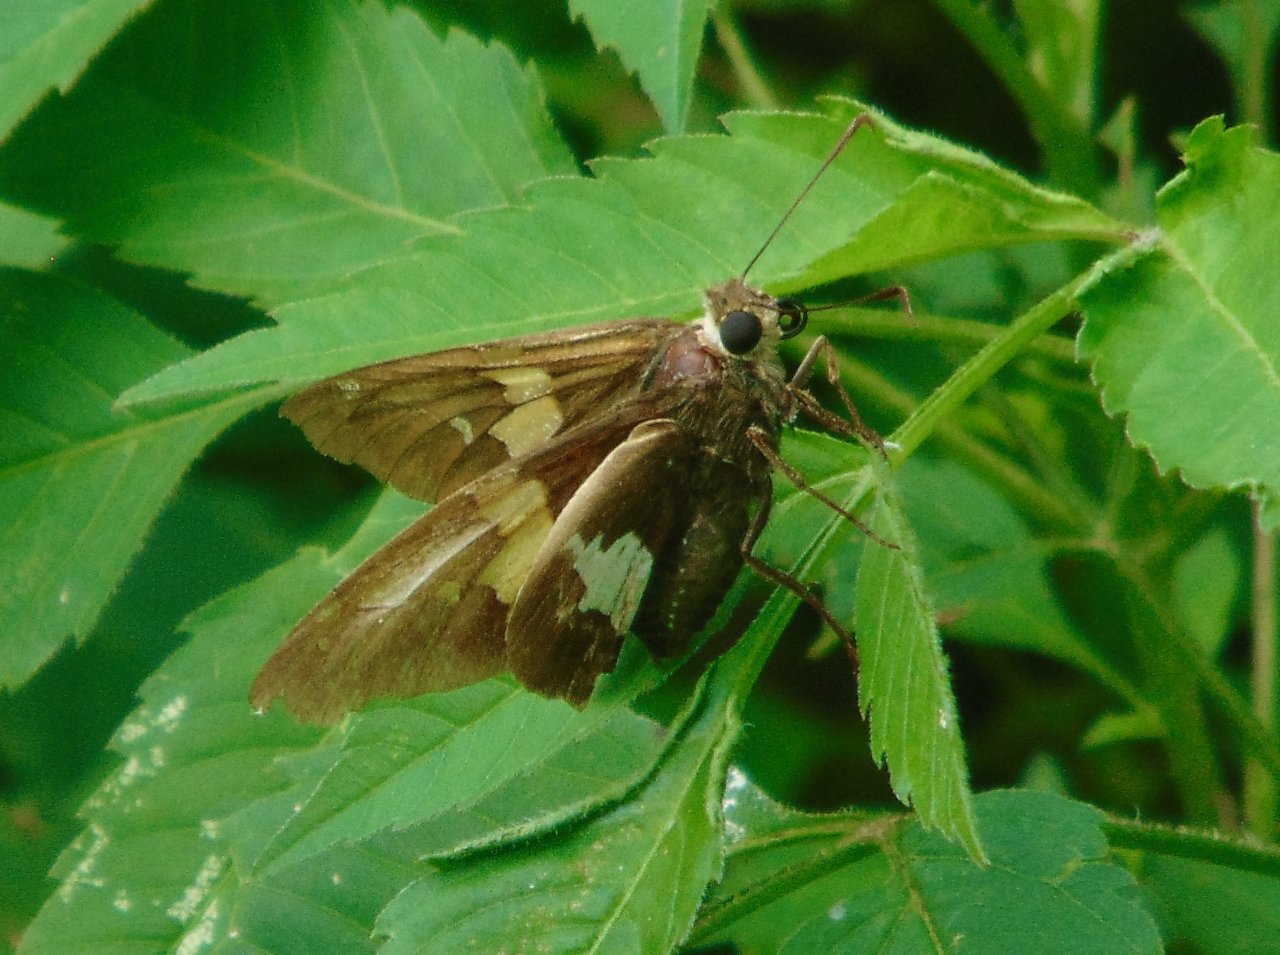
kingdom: Animalia
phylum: Arthropoda
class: Insecta
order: Lepidoptera
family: Hesperiidae
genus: Epargyreus
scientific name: Epargyreus clarus
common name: Silver-spotted Skipper
